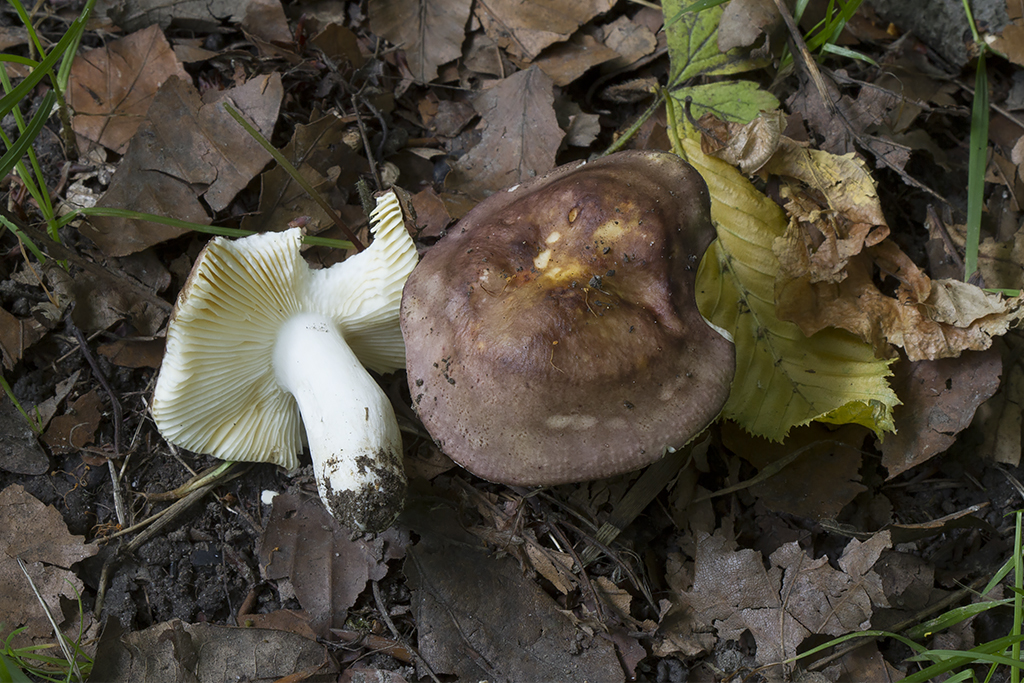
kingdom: Fungi
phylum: Basidiomycota
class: Agaricomycetes
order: Russulales
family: Russulaceae
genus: Russula
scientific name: Russula carpini
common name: avnbøg-skørhat
